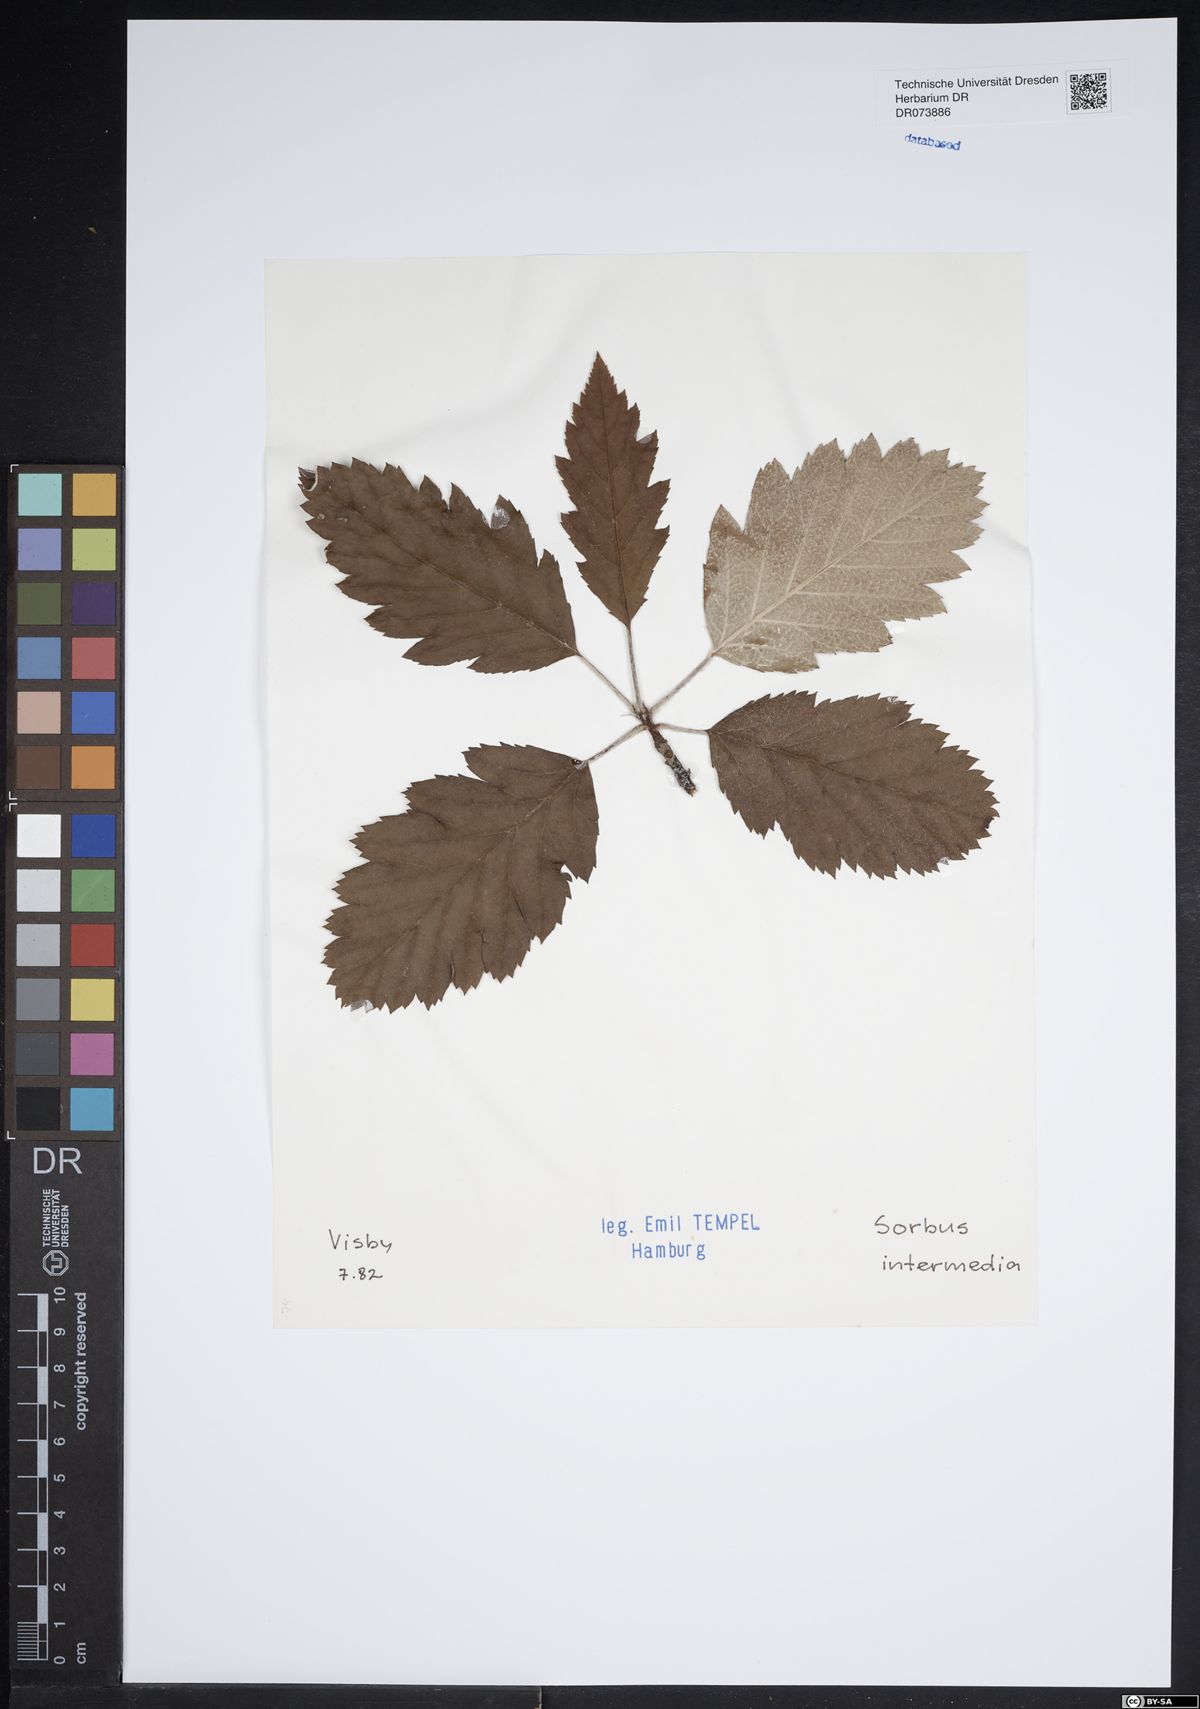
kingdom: Plantae
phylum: Tracheophyta
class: Magnoliopsida
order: Rosales
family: Rosaceae
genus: Scandosorbus
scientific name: Scandosorbus intermedia
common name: Swedish whitebeam
